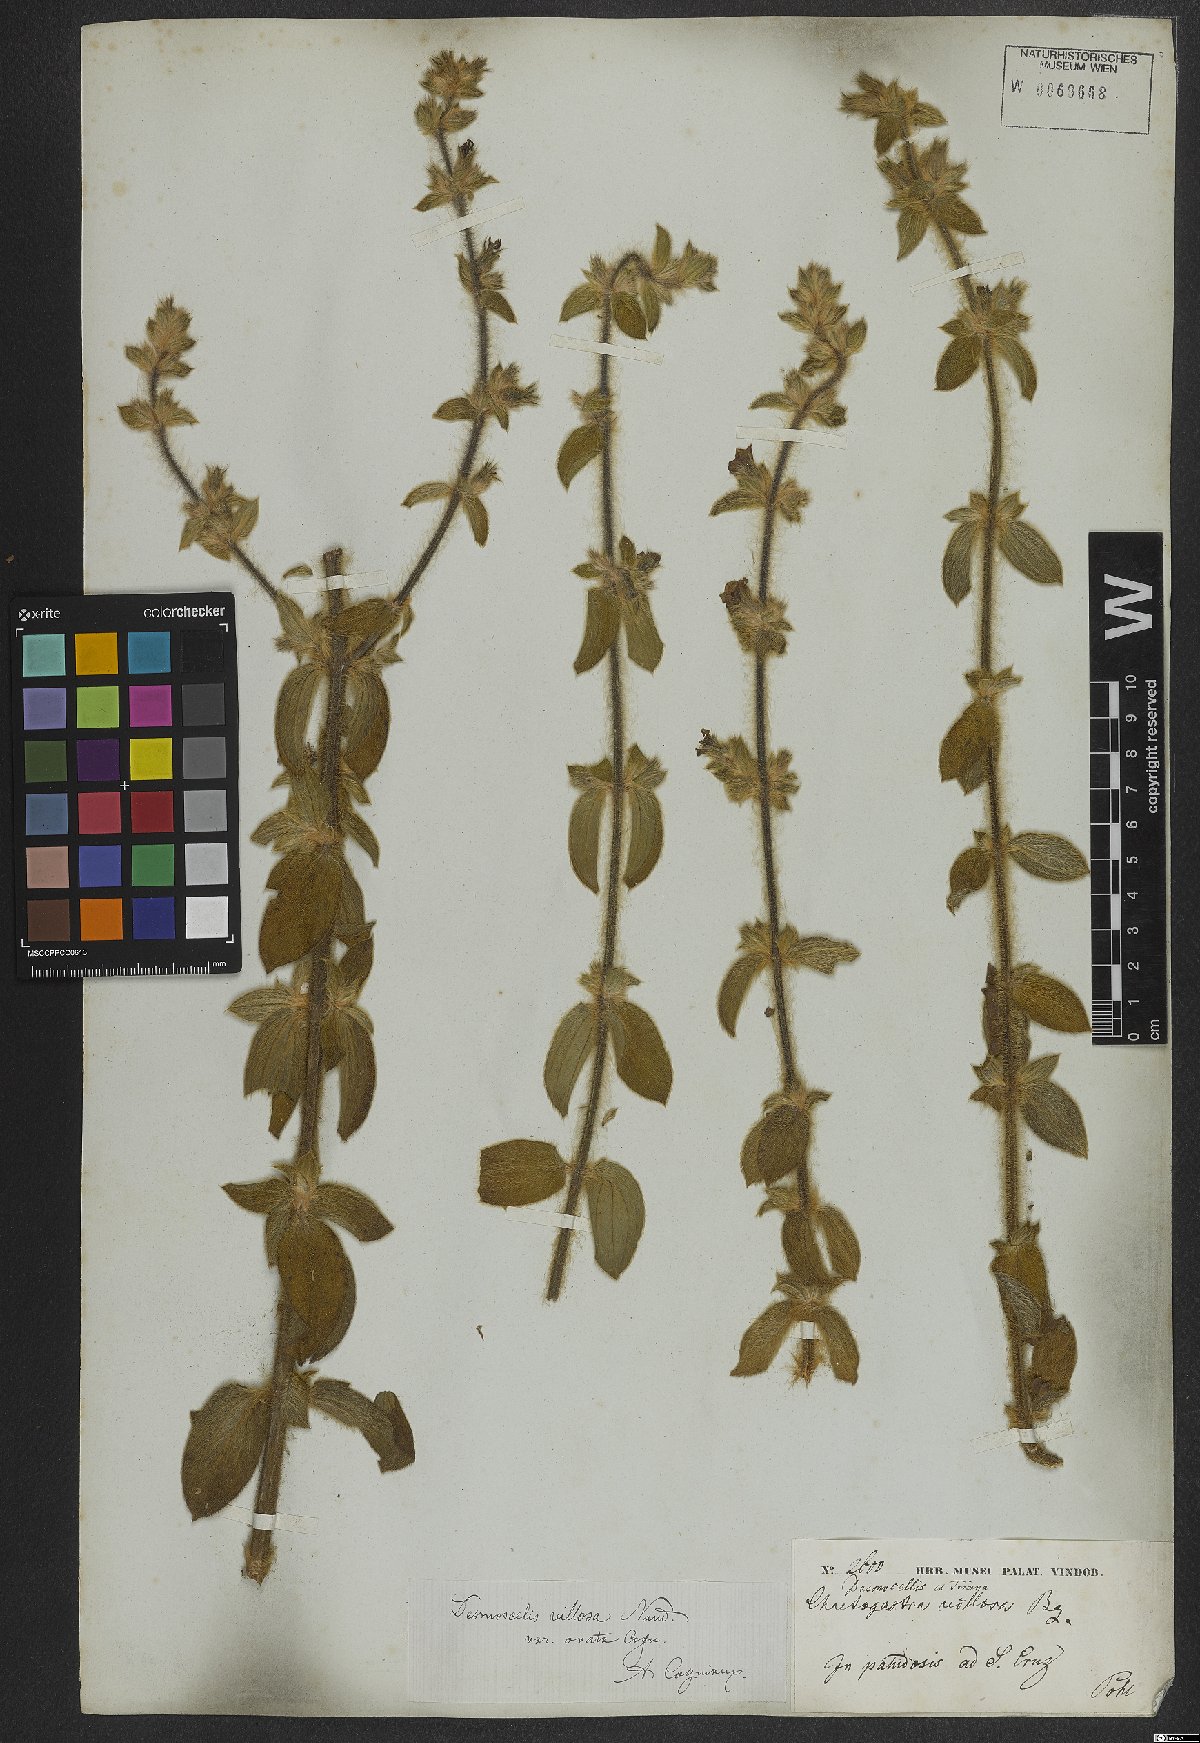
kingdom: Plantae
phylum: Tracheophyta
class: Magnoliopsida
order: Myrtales
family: Melastomataceae
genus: Desmoscelis
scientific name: Desmoscelis villosa
